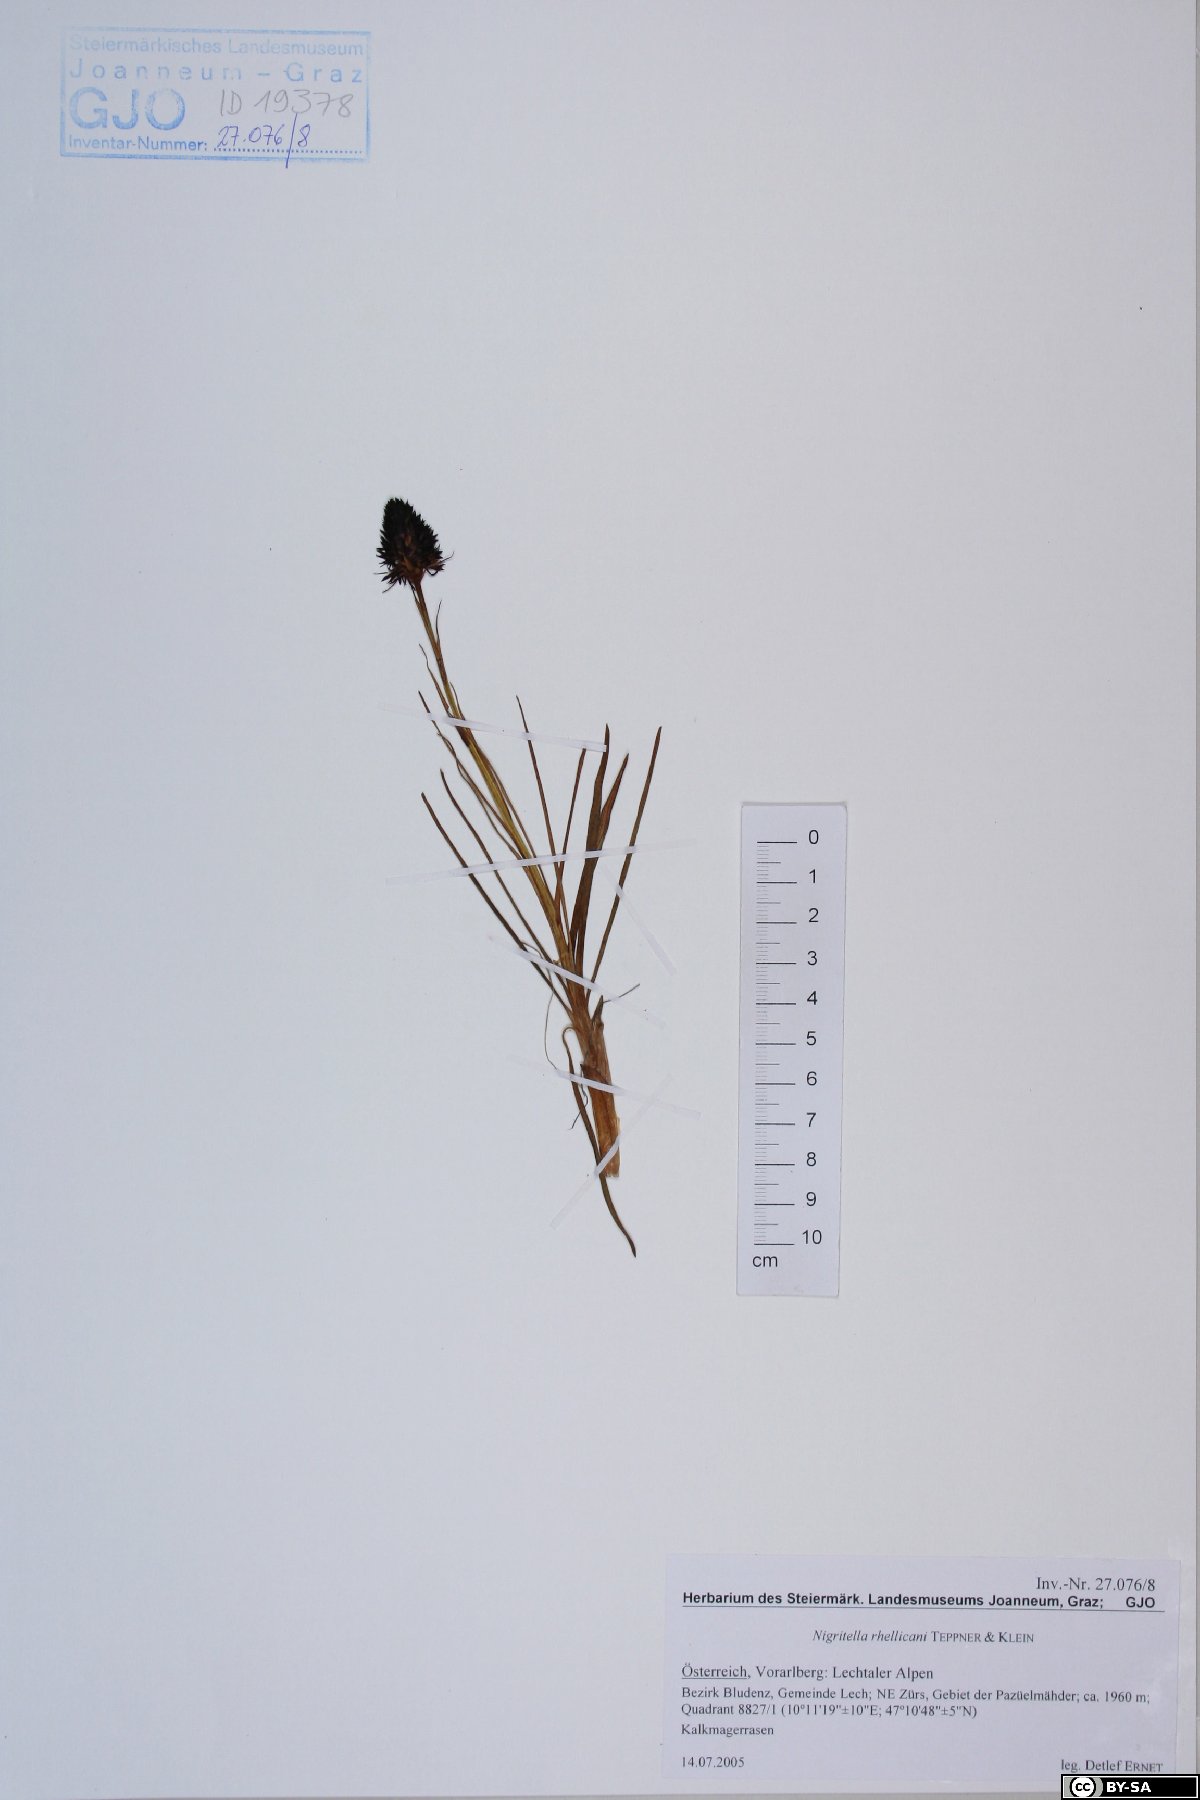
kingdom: Plantae
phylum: Tracheophyta
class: Liliopsida
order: Asparagales
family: Orchidaceae
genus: Gymnadenia
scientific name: Gymnadenia rhellicani
